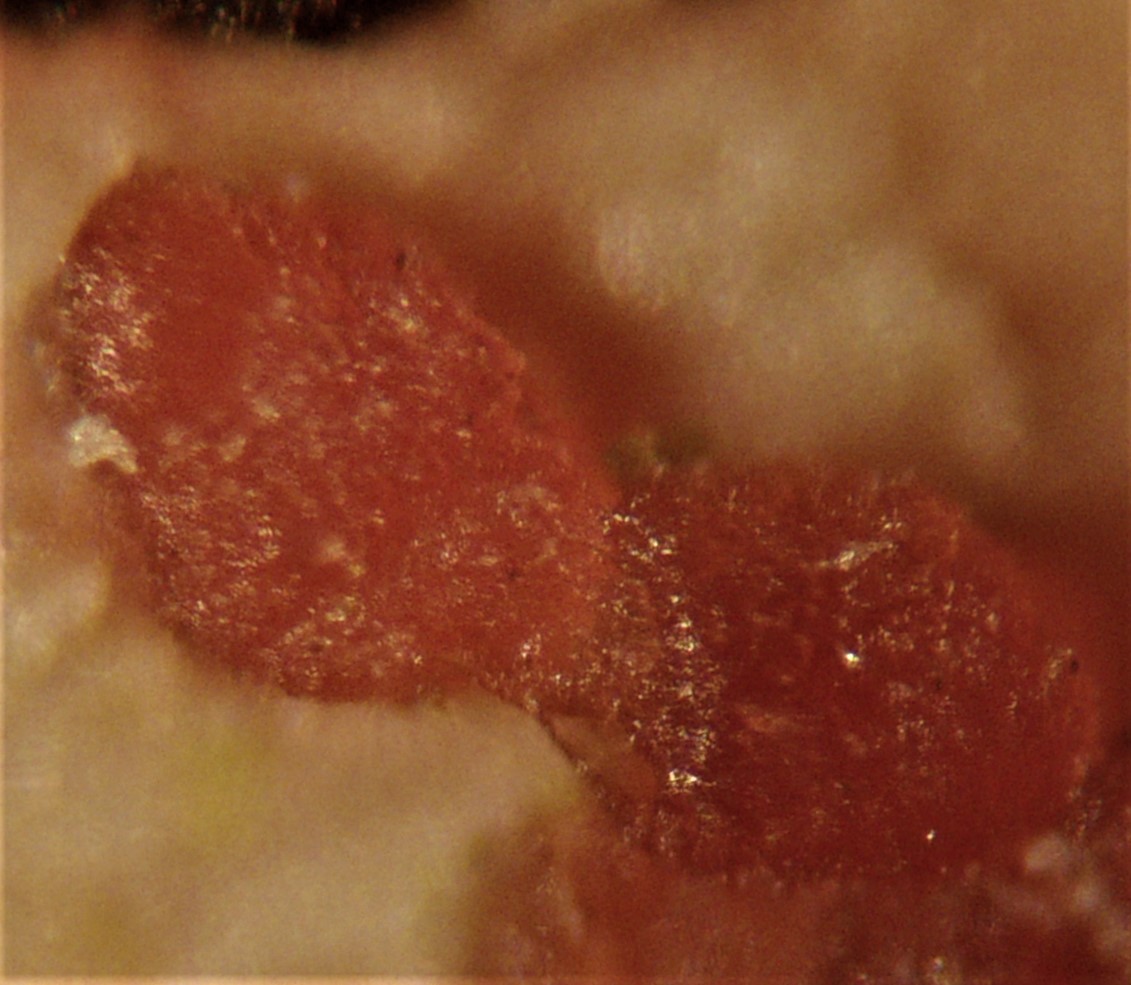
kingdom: Fungi
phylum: Ascomycota
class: Leotiomycetes
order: Helotiales
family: Calloriaceae
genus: Calloria
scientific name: Calloria urticae
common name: nælde-orangeskive
